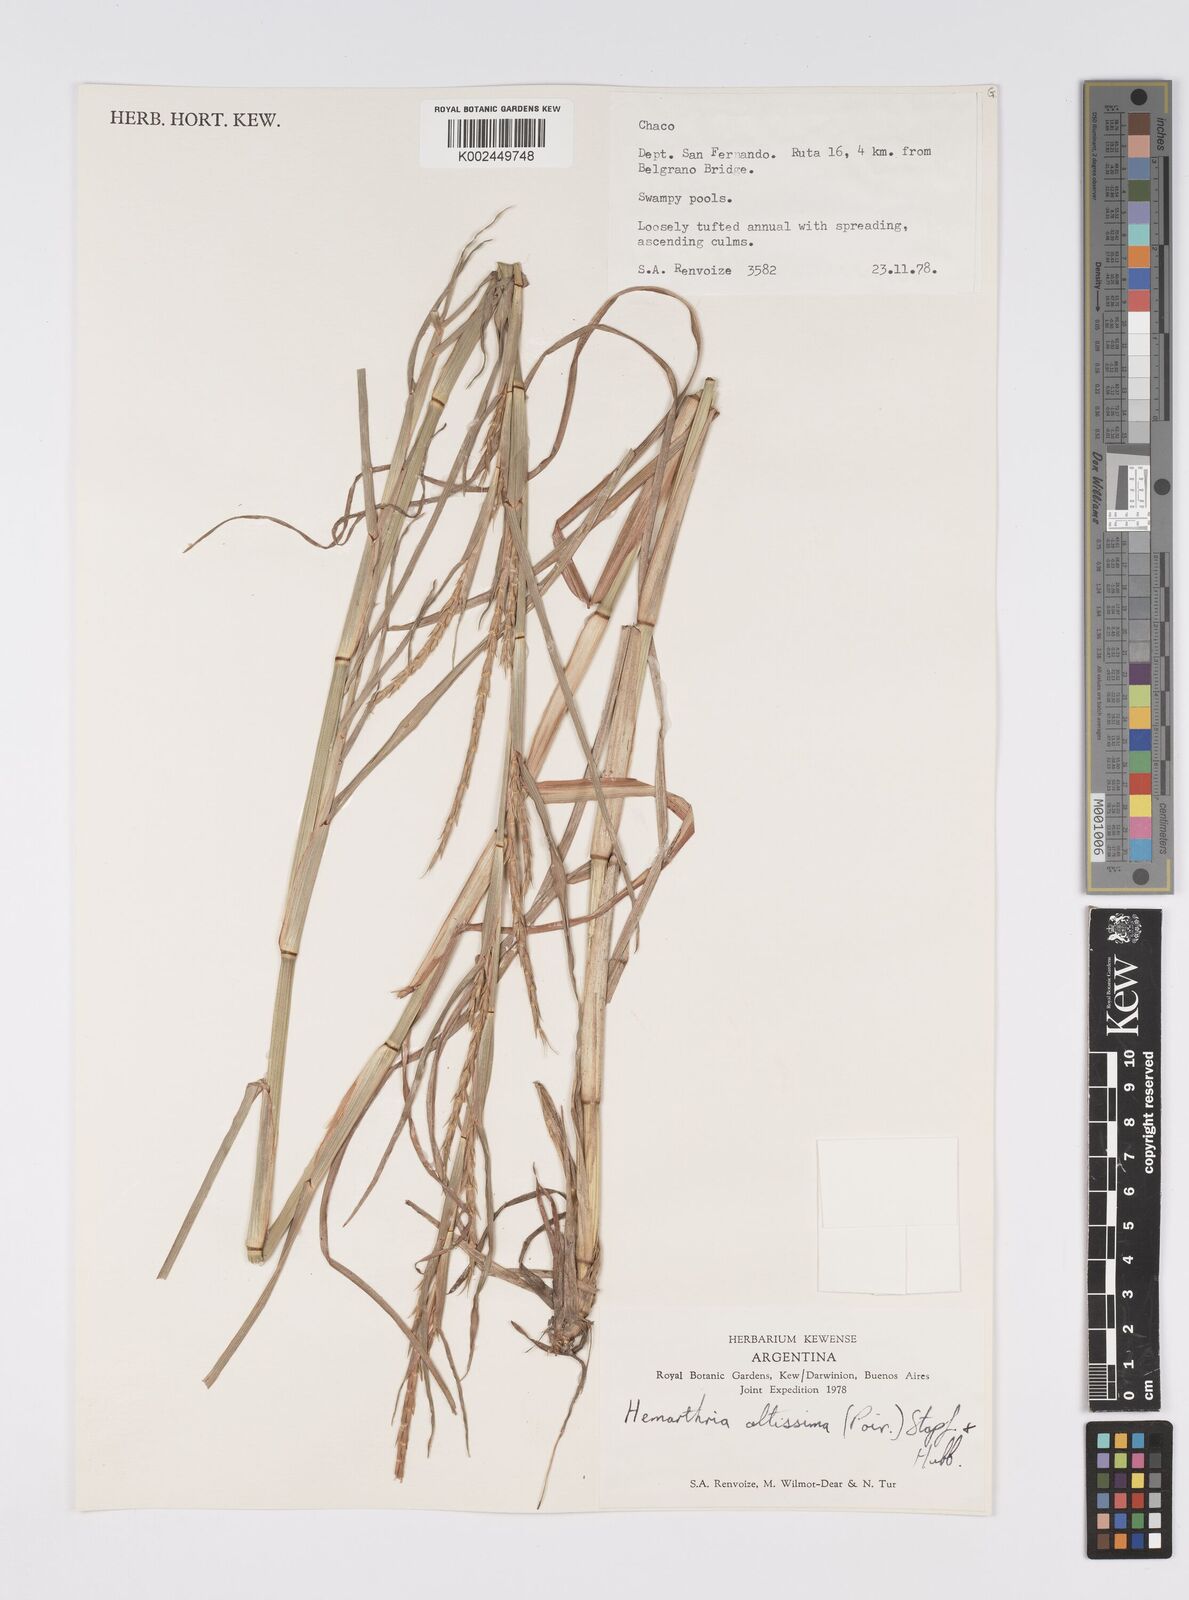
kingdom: Plantae
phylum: Tracheophyta
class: Liliopsida
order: Poales
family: Poaceae
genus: Hemarthria
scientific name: Hemarthria altissima
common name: African jointgrass
